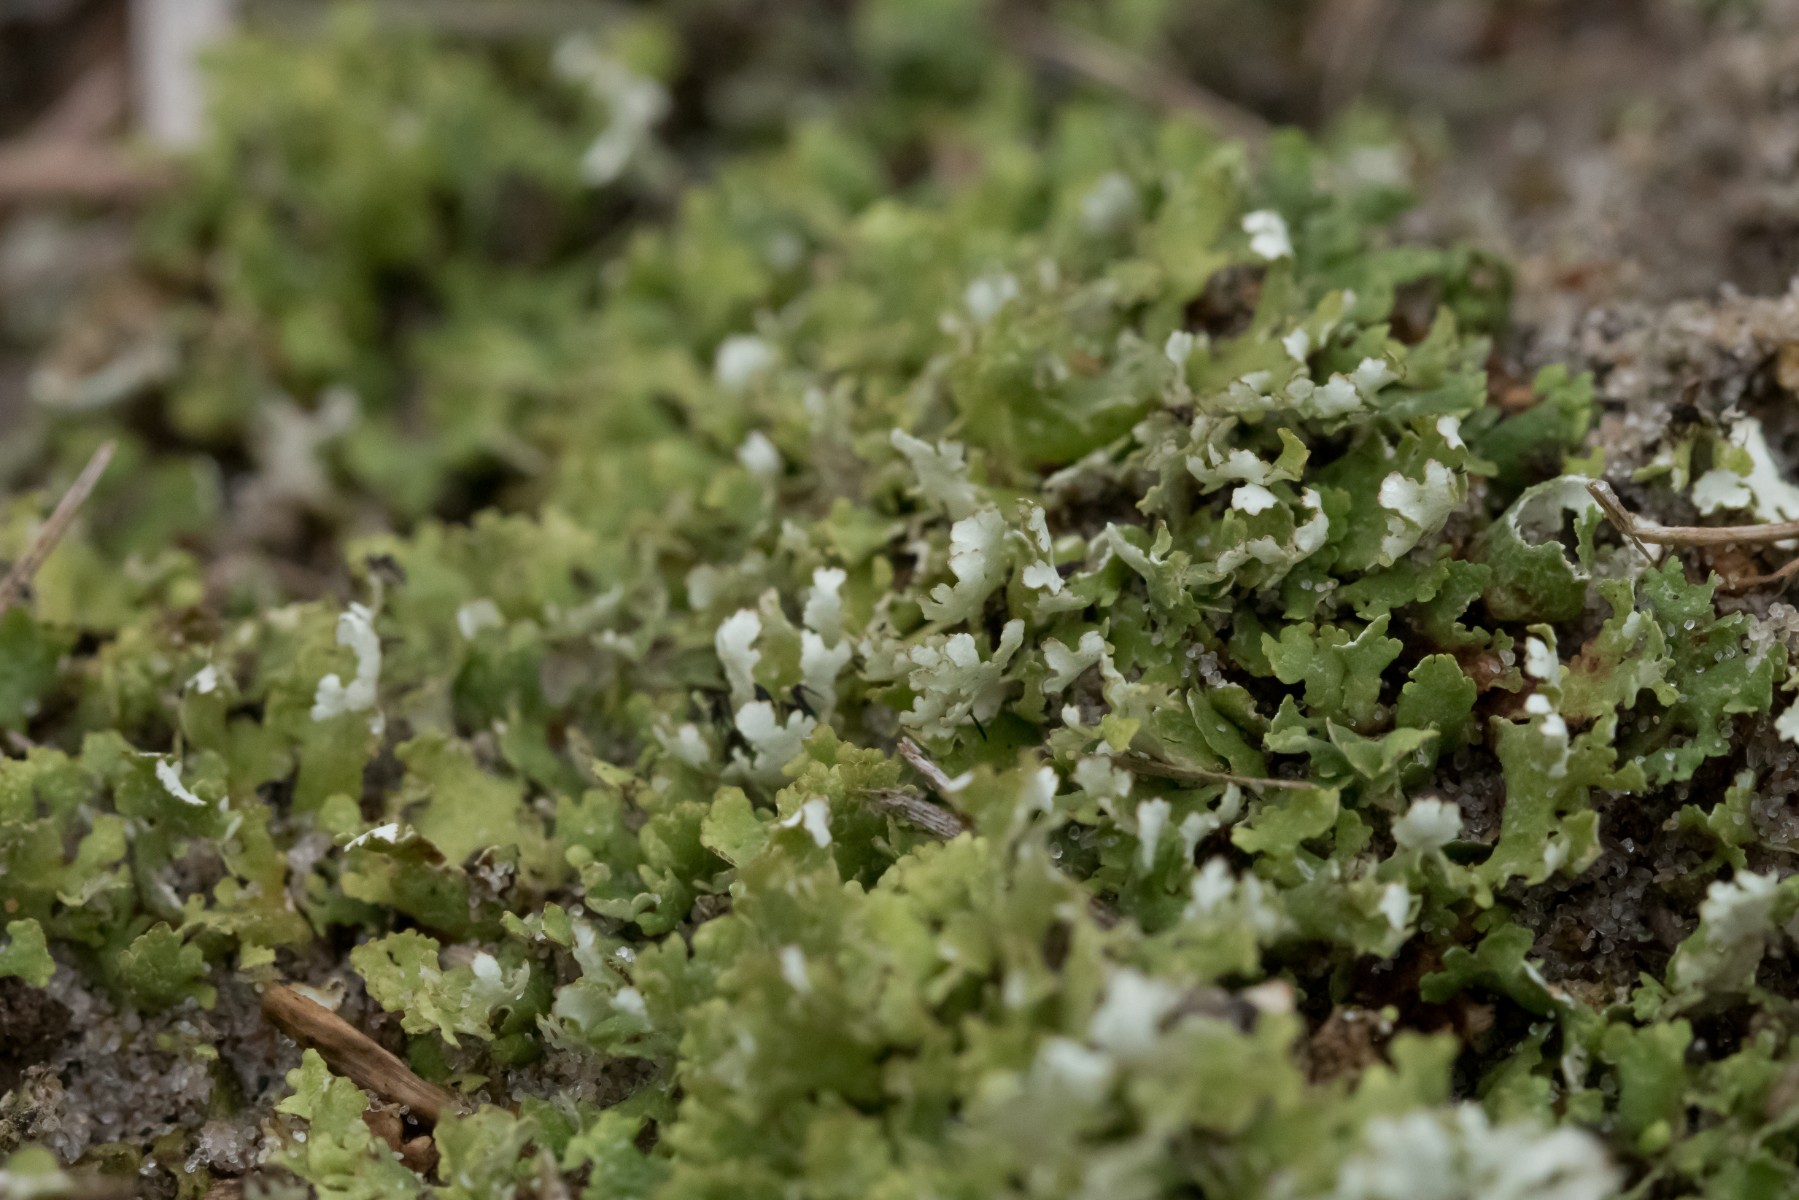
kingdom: Fungi
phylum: Ascomycota
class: Lecanoromycetes
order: Lecanorales
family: Cladoniaceae
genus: Cladonia
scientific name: Cladonia foliacea
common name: fliget bægerlav
